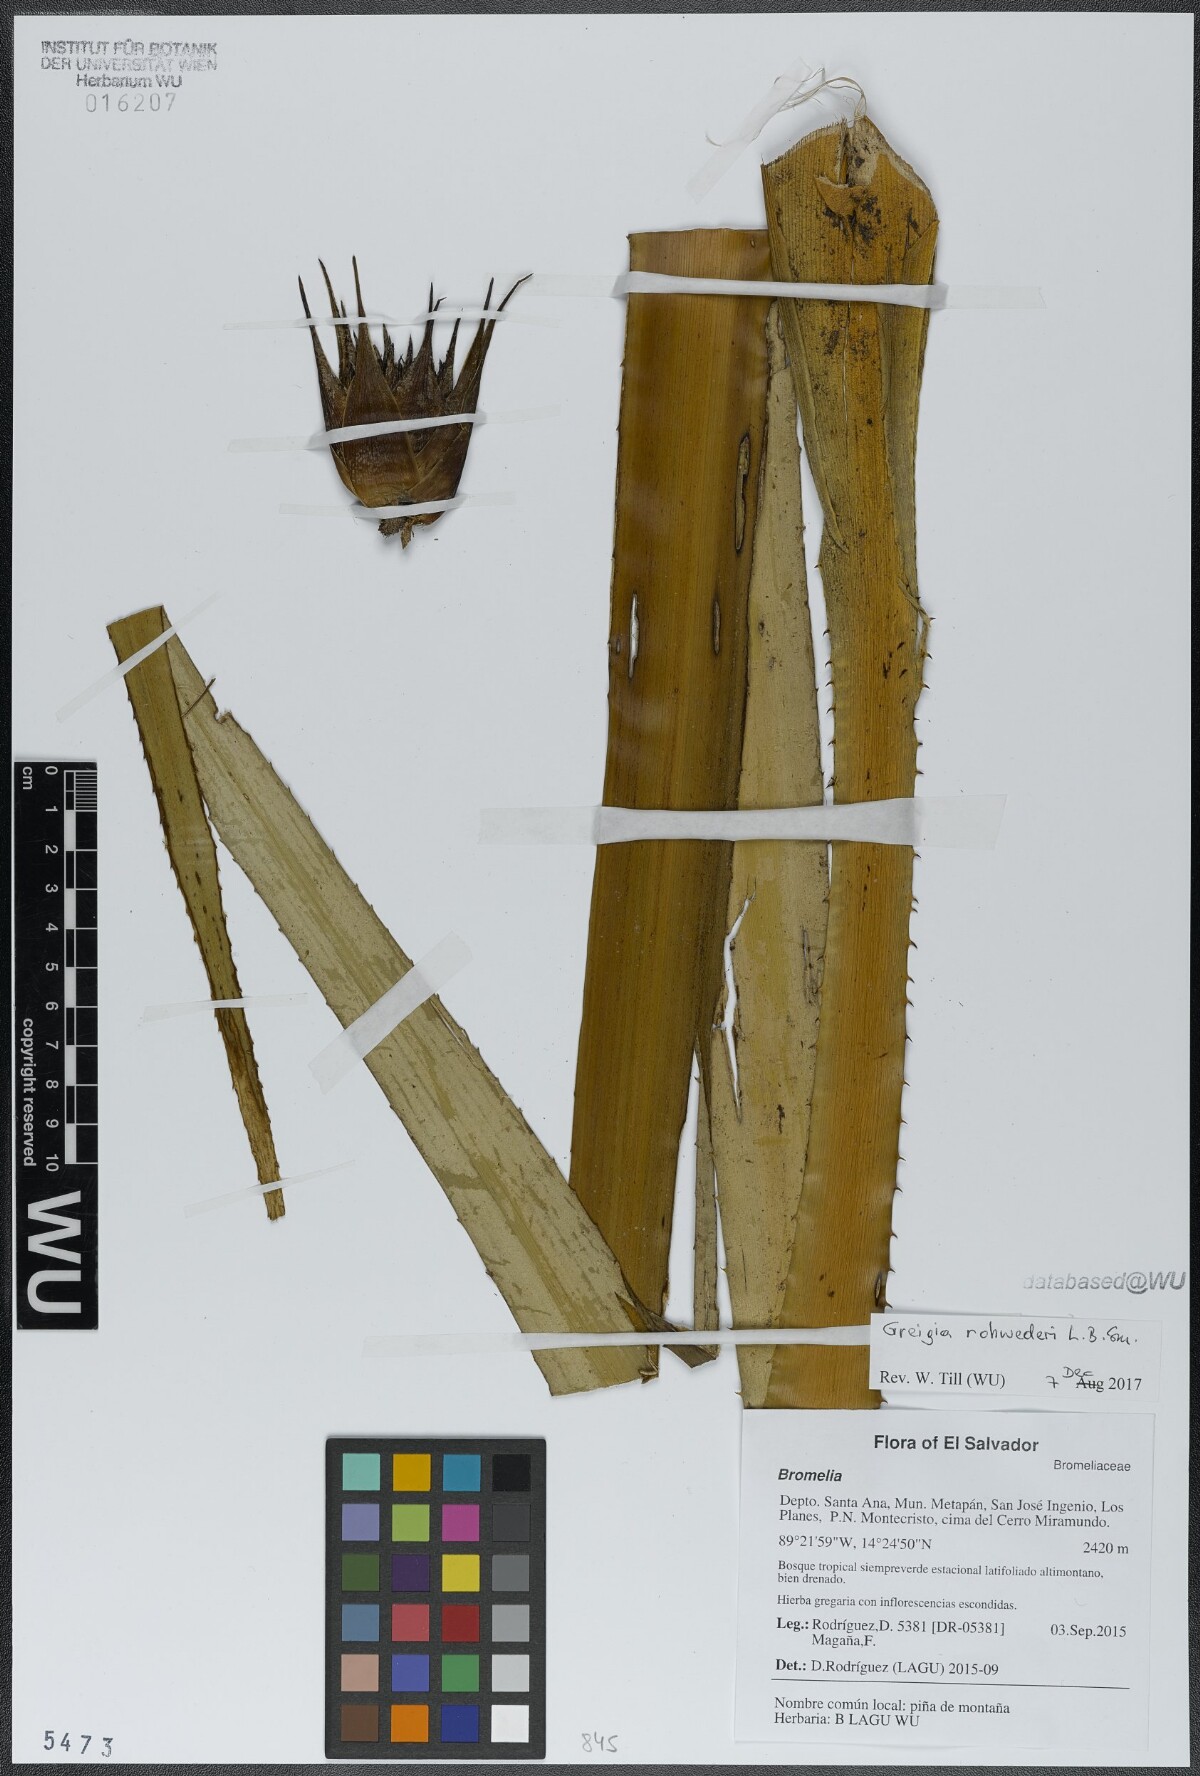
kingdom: Plantae
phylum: Tracheophyta
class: Liliopsida
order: Poales
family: Bromeliaceae
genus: Greigia
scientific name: Greigia rohwederi
